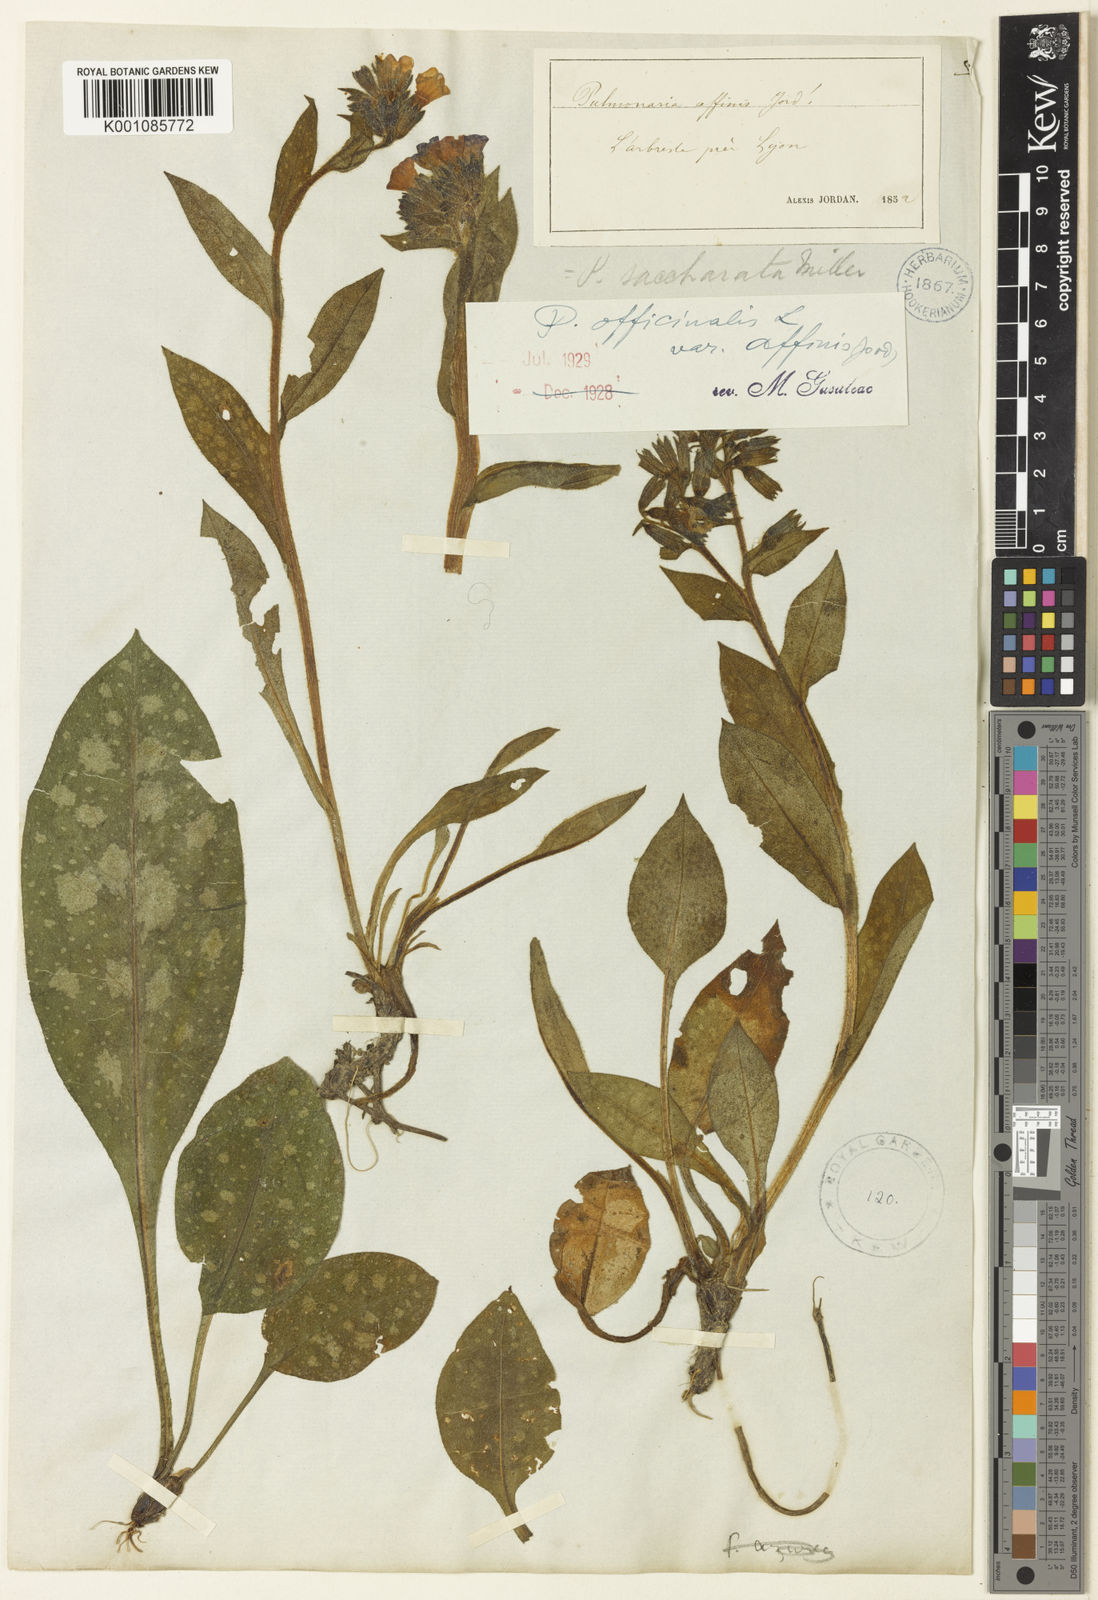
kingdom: Plantae
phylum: Tracheophyta
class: Magnoliopsida
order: Boraginales
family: Boraginaceae
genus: Pulmonaria
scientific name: Pulmonaria affinis
